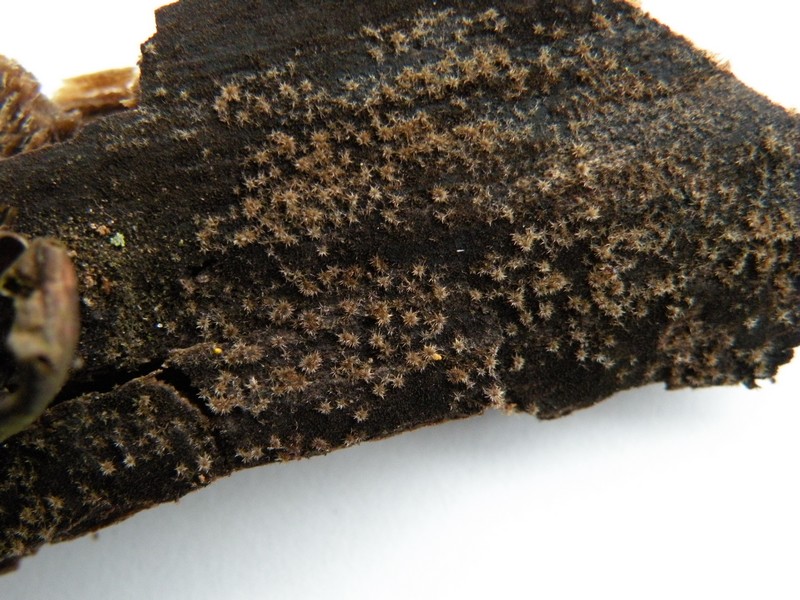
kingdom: Fungi
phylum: Ascomycota
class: Sordariomycetes
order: Sordariales
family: Helminthosphaeriaceae
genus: Echinosphaeria
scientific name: Echinosphaeria strigosa
